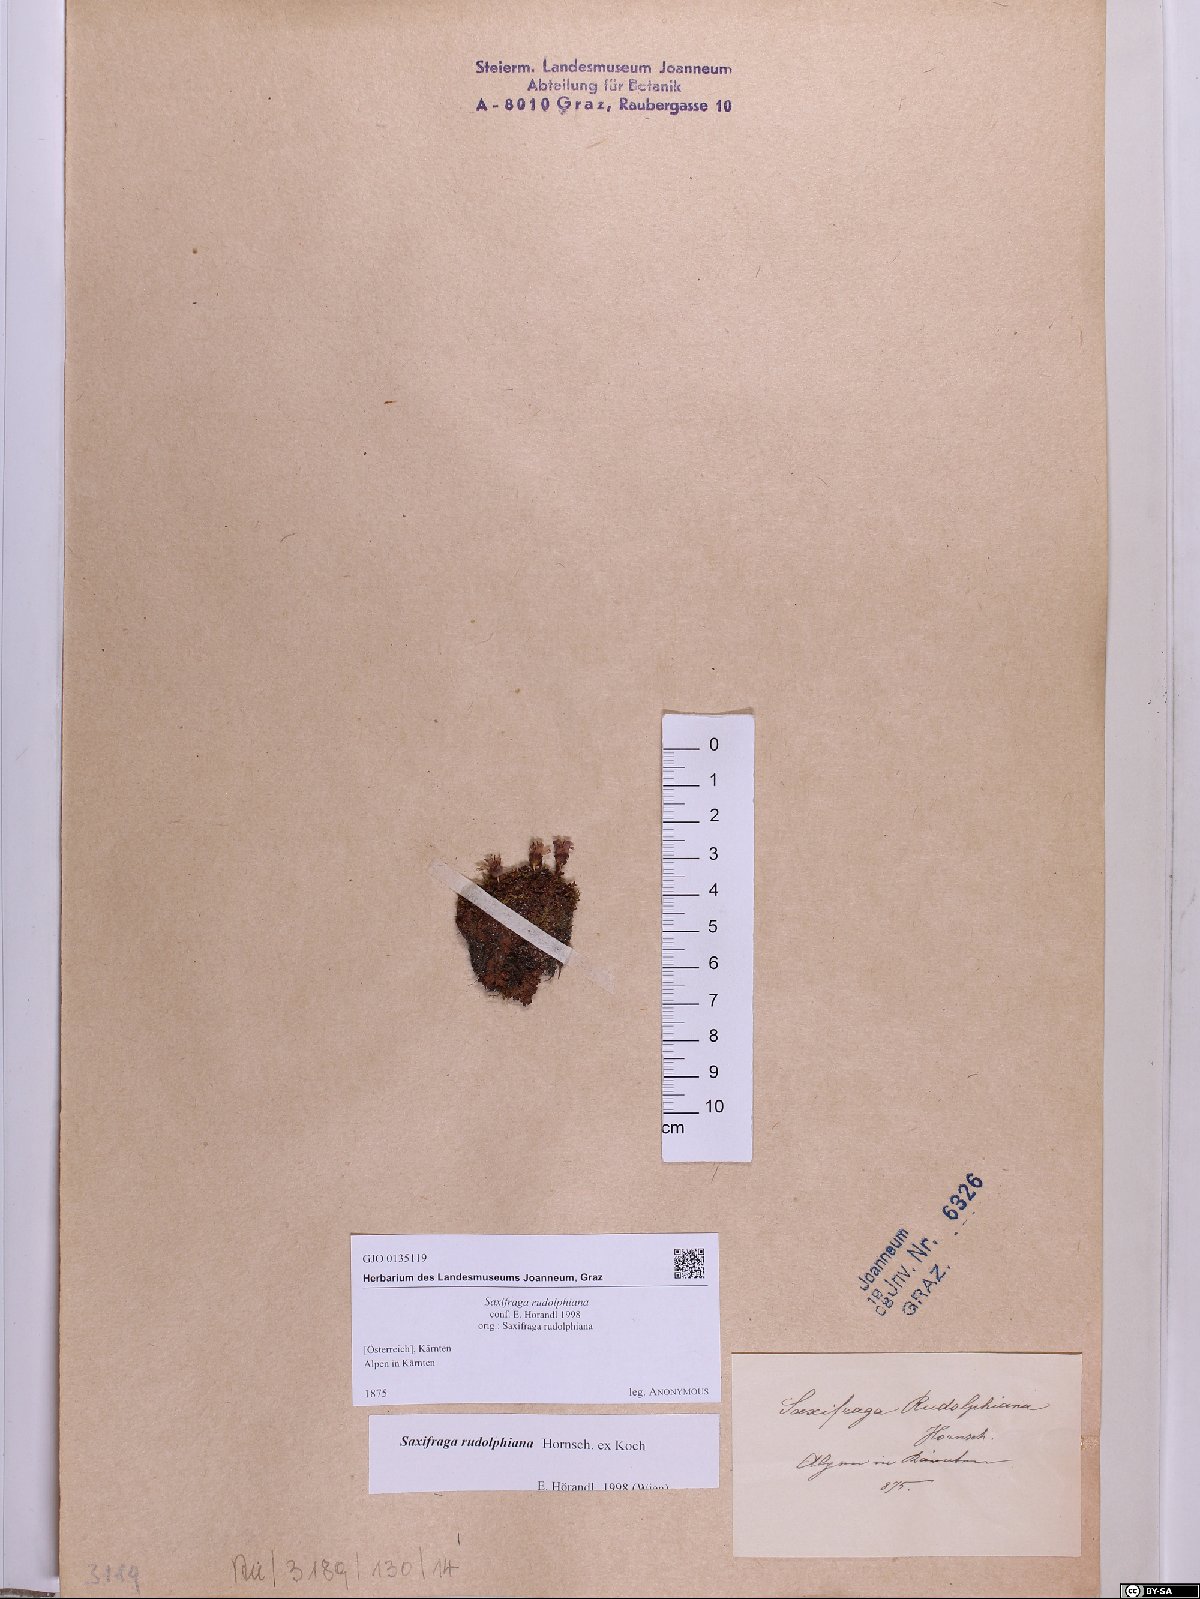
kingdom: Plantae
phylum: Tracheophyta
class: Magnoliopsida
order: Saxifragales
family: Saxifragaceae
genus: Saxifraga
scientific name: Saxifraga oppositifolia
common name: Purple saxifrage
